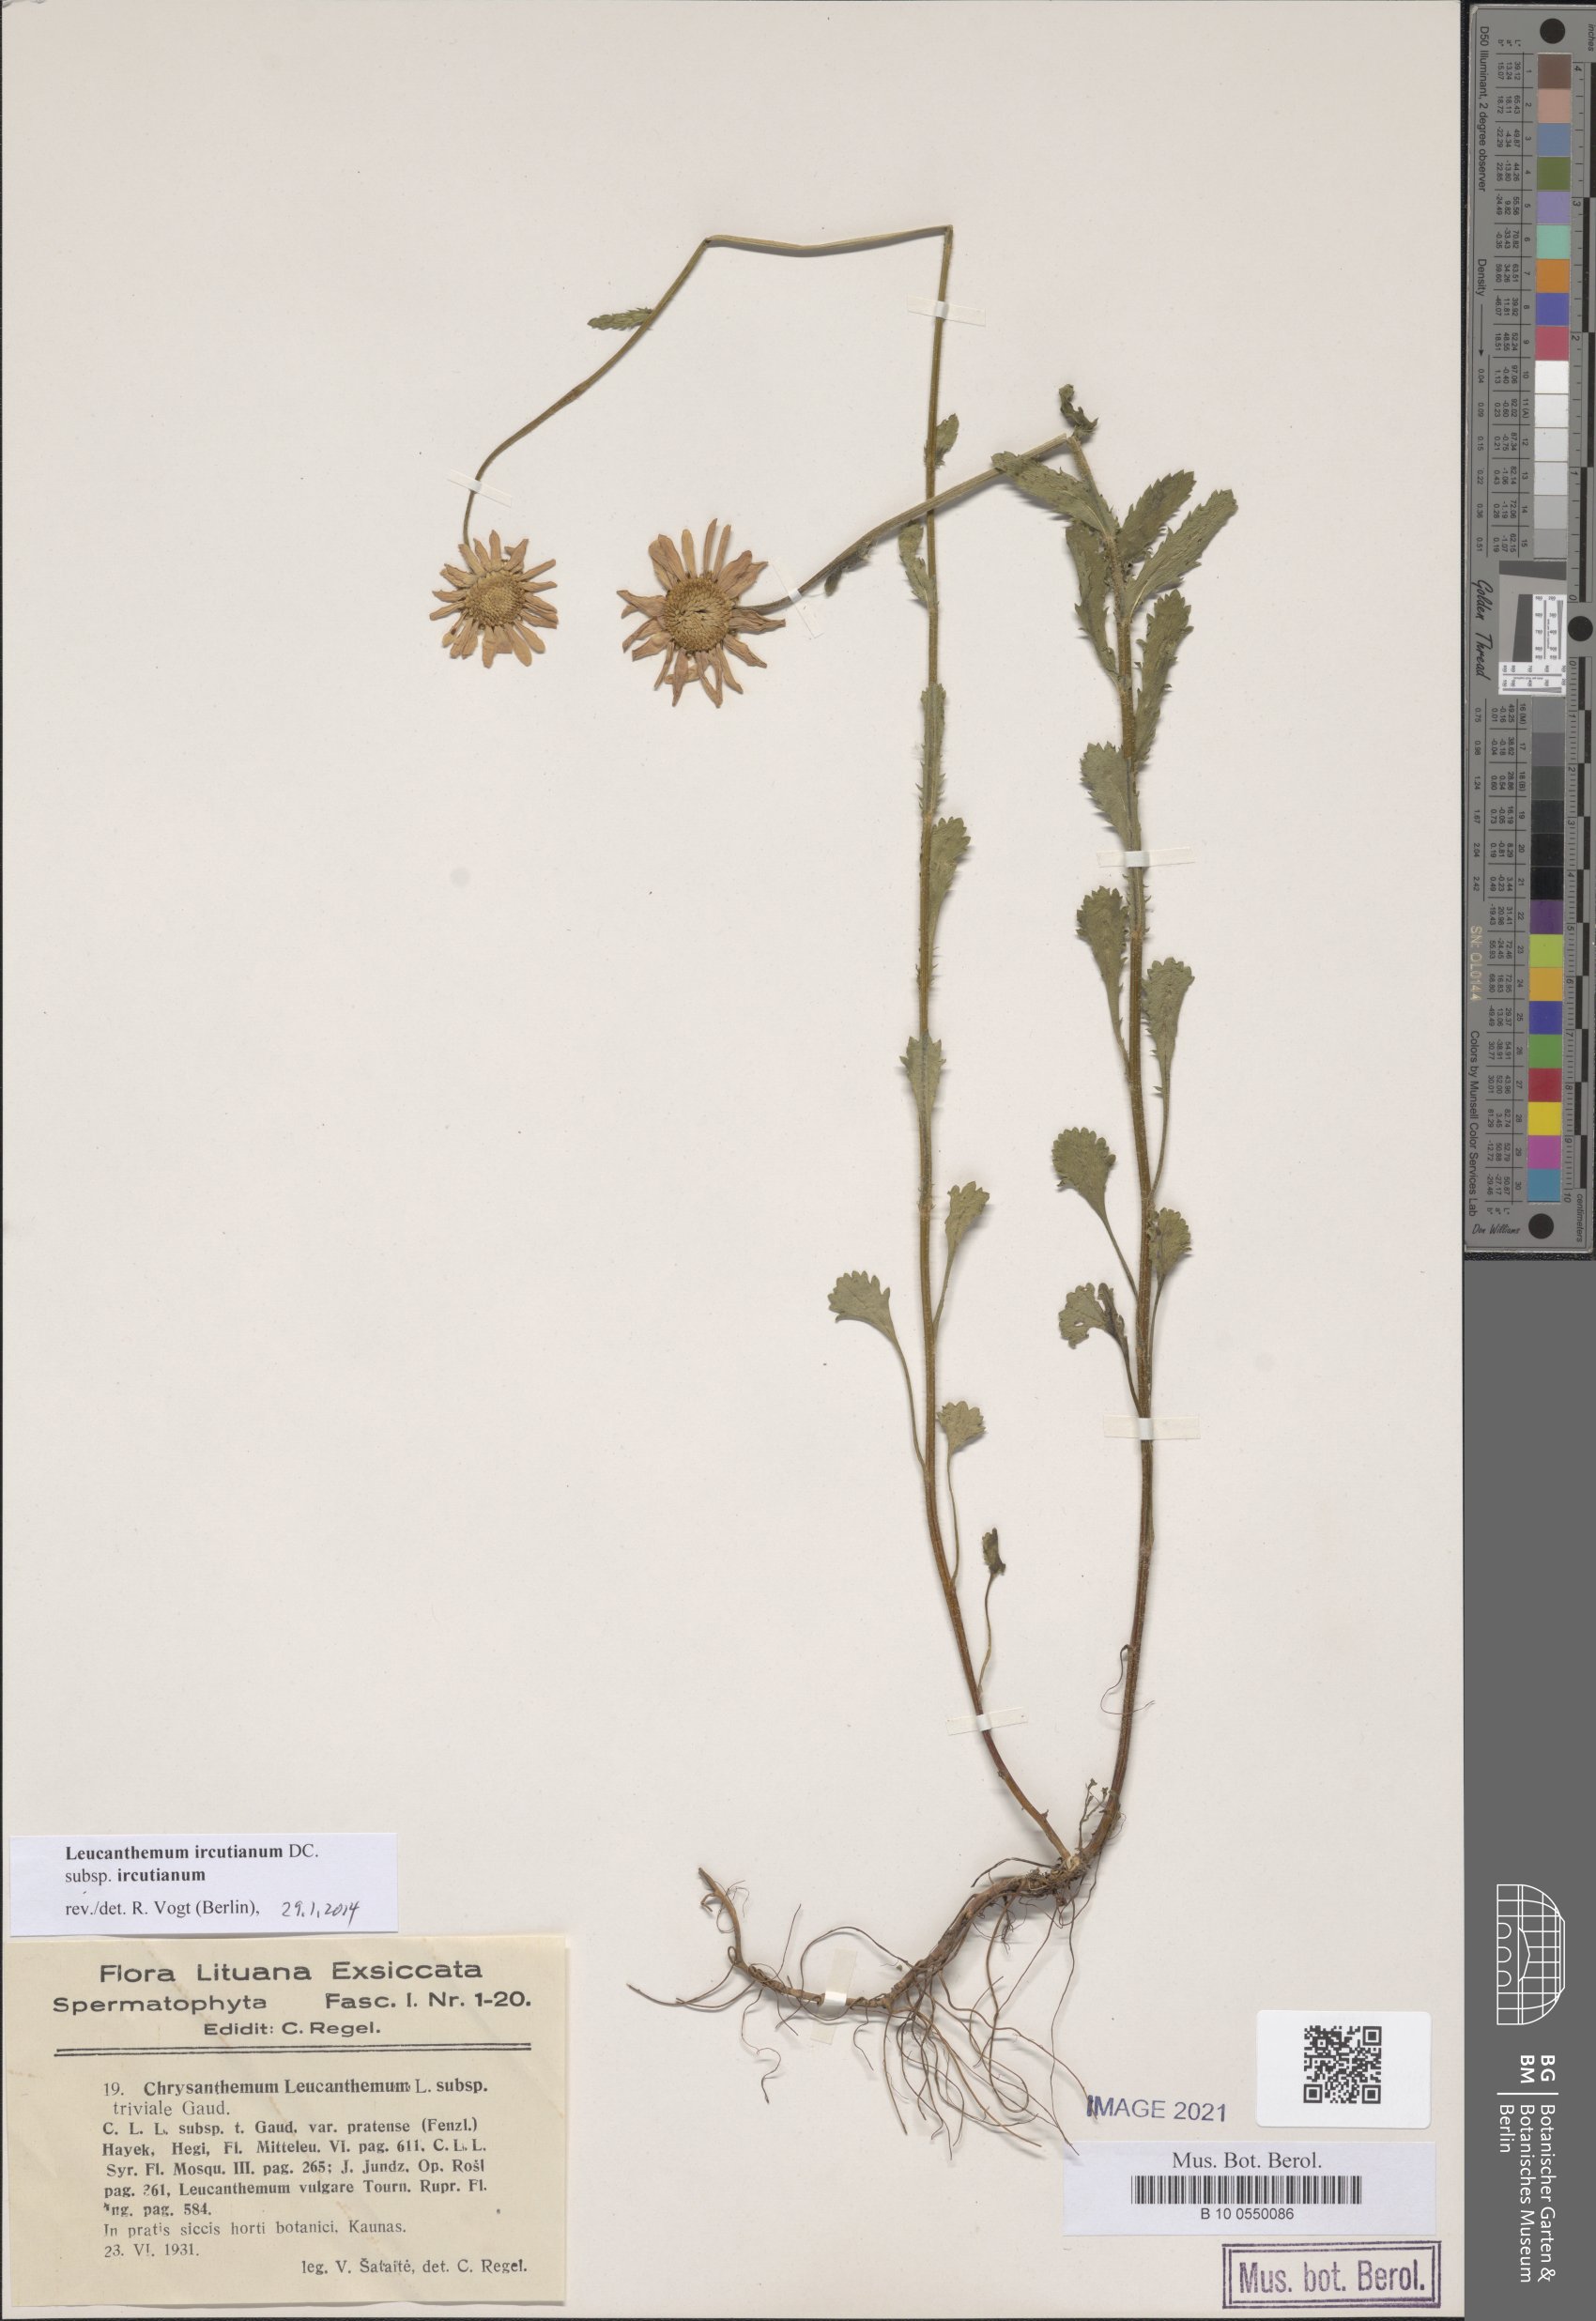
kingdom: Plantae
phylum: Tracheophyta
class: Magnoliopsida
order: Asterales
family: Asteraceae
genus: Leucanthemum
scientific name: Leucanthemum ircutianum
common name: Daisy
